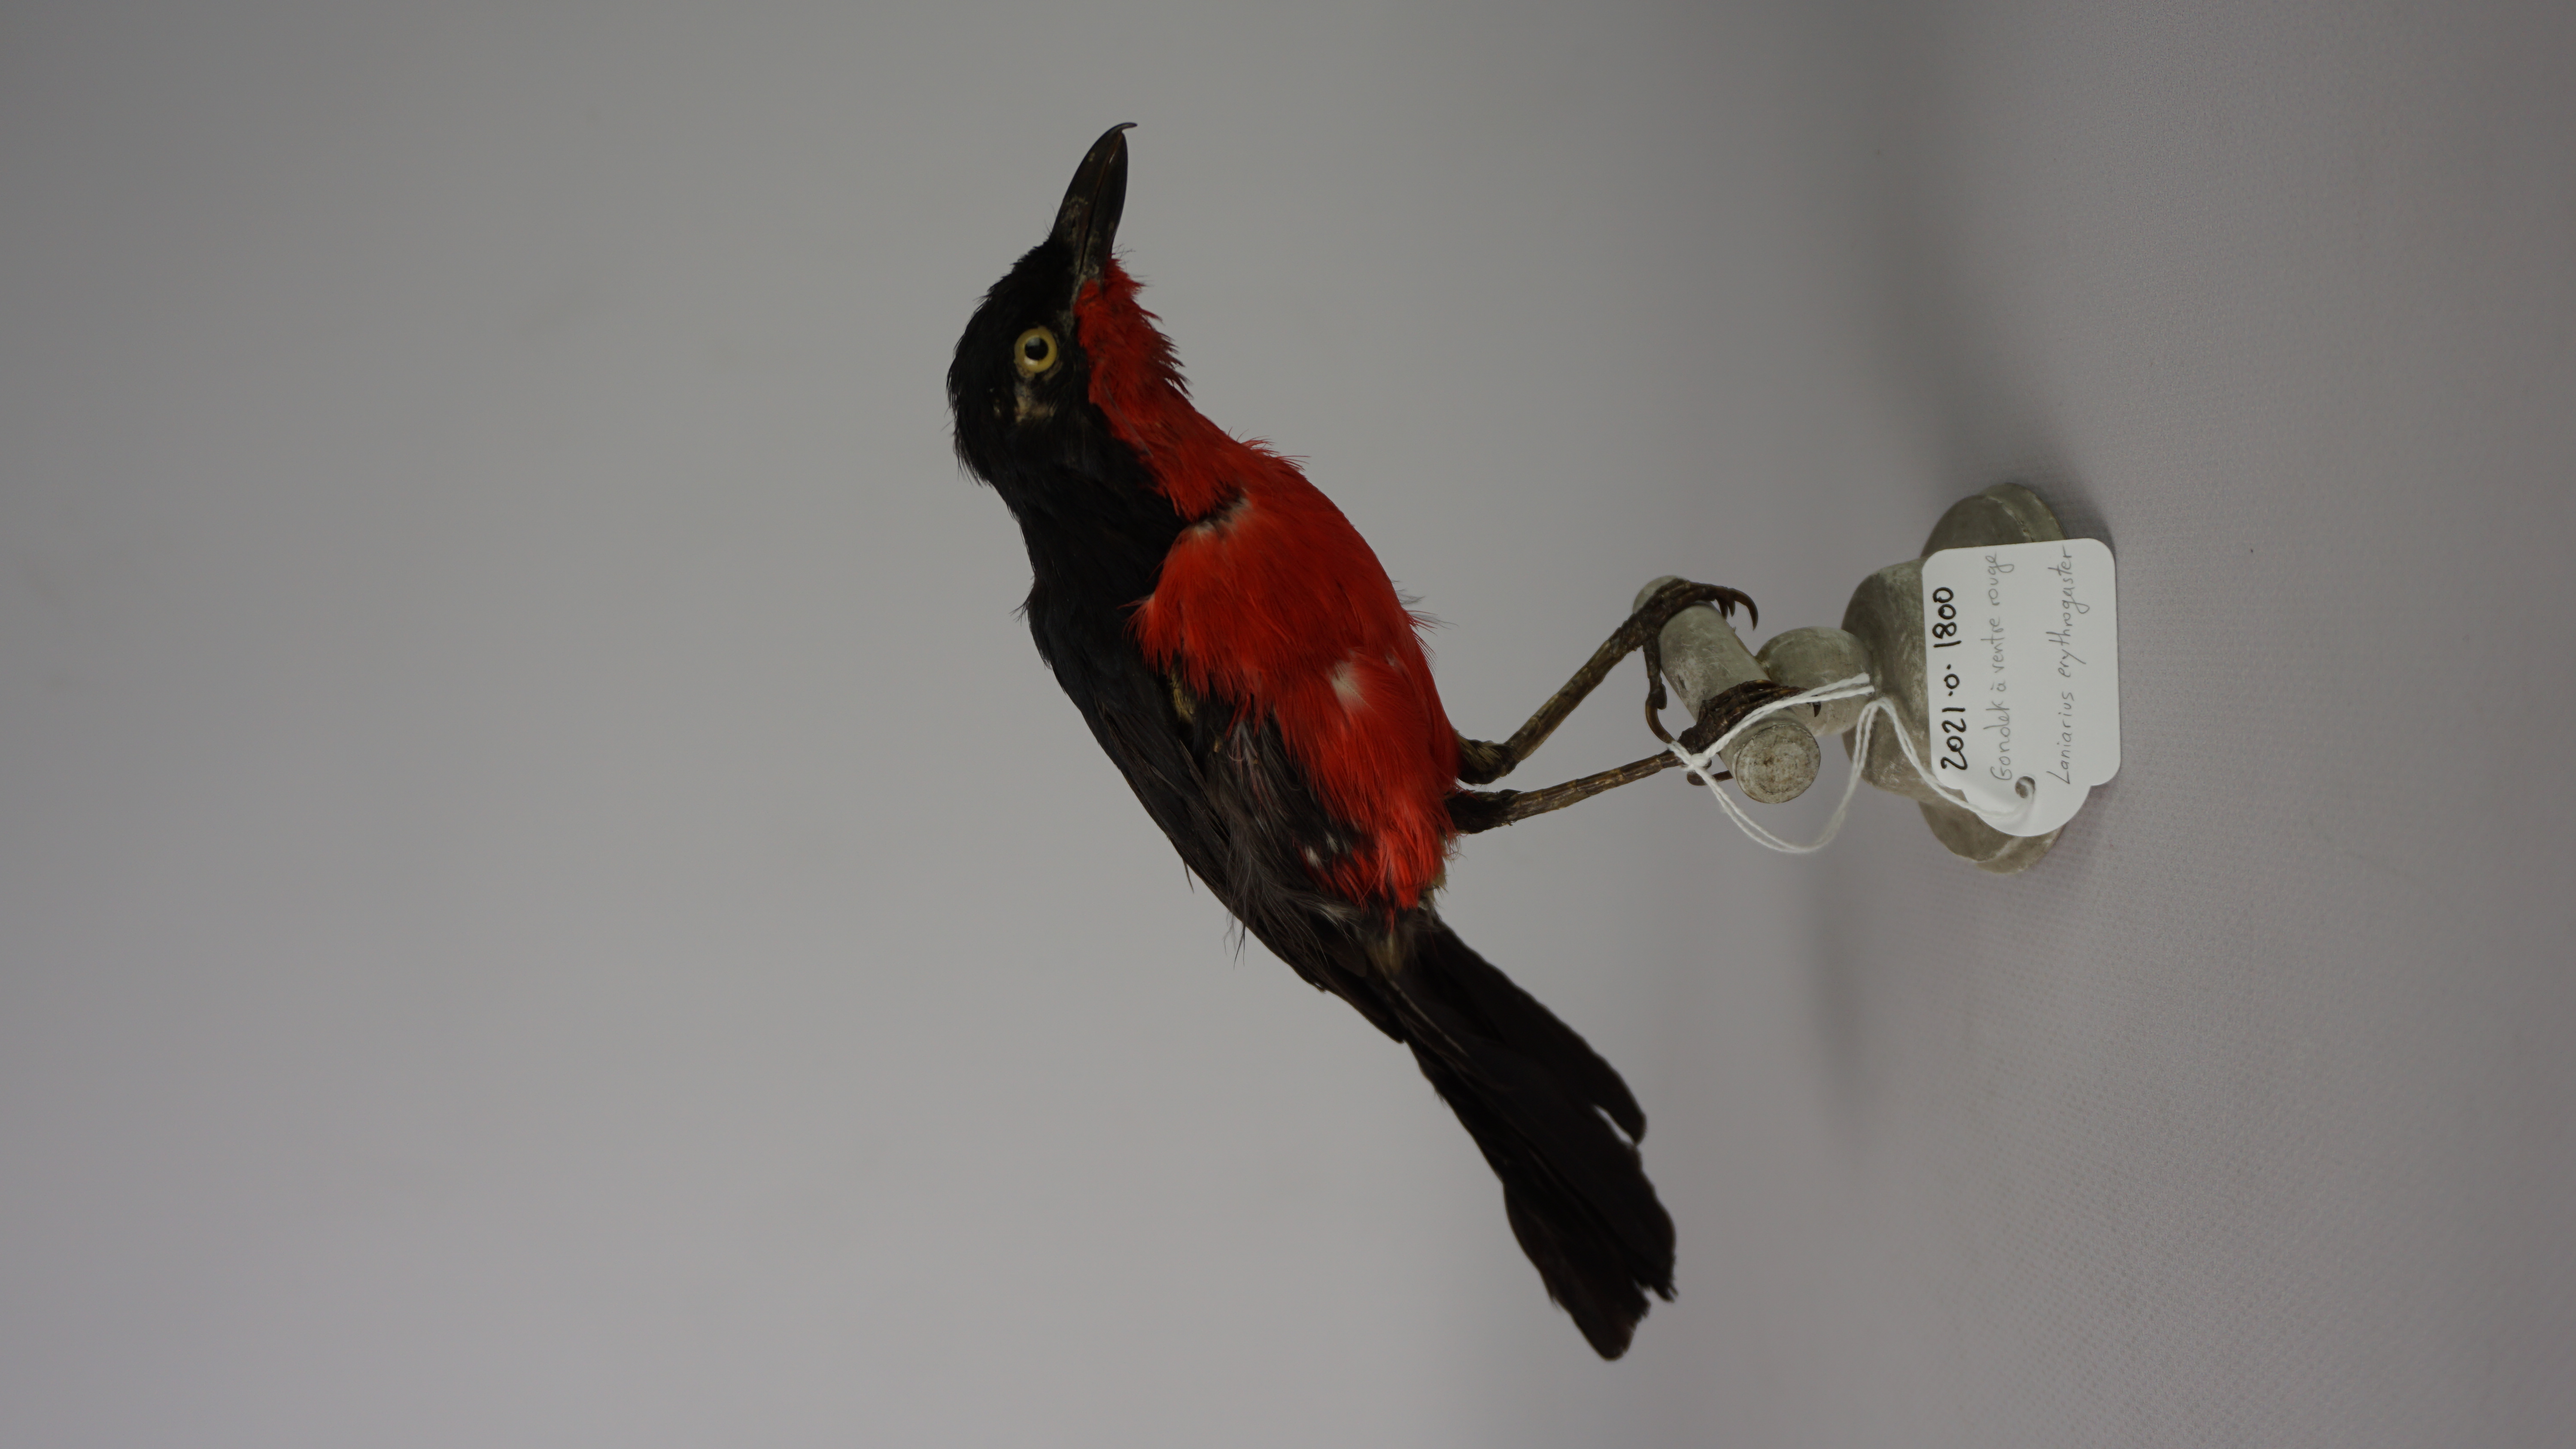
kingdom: Animalia
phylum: Chordata
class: Aves
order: Passeriformes
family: Malaconotidae
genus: Laniarius
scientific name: Laniarius erythrogaster
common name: Black-headed gonolek
